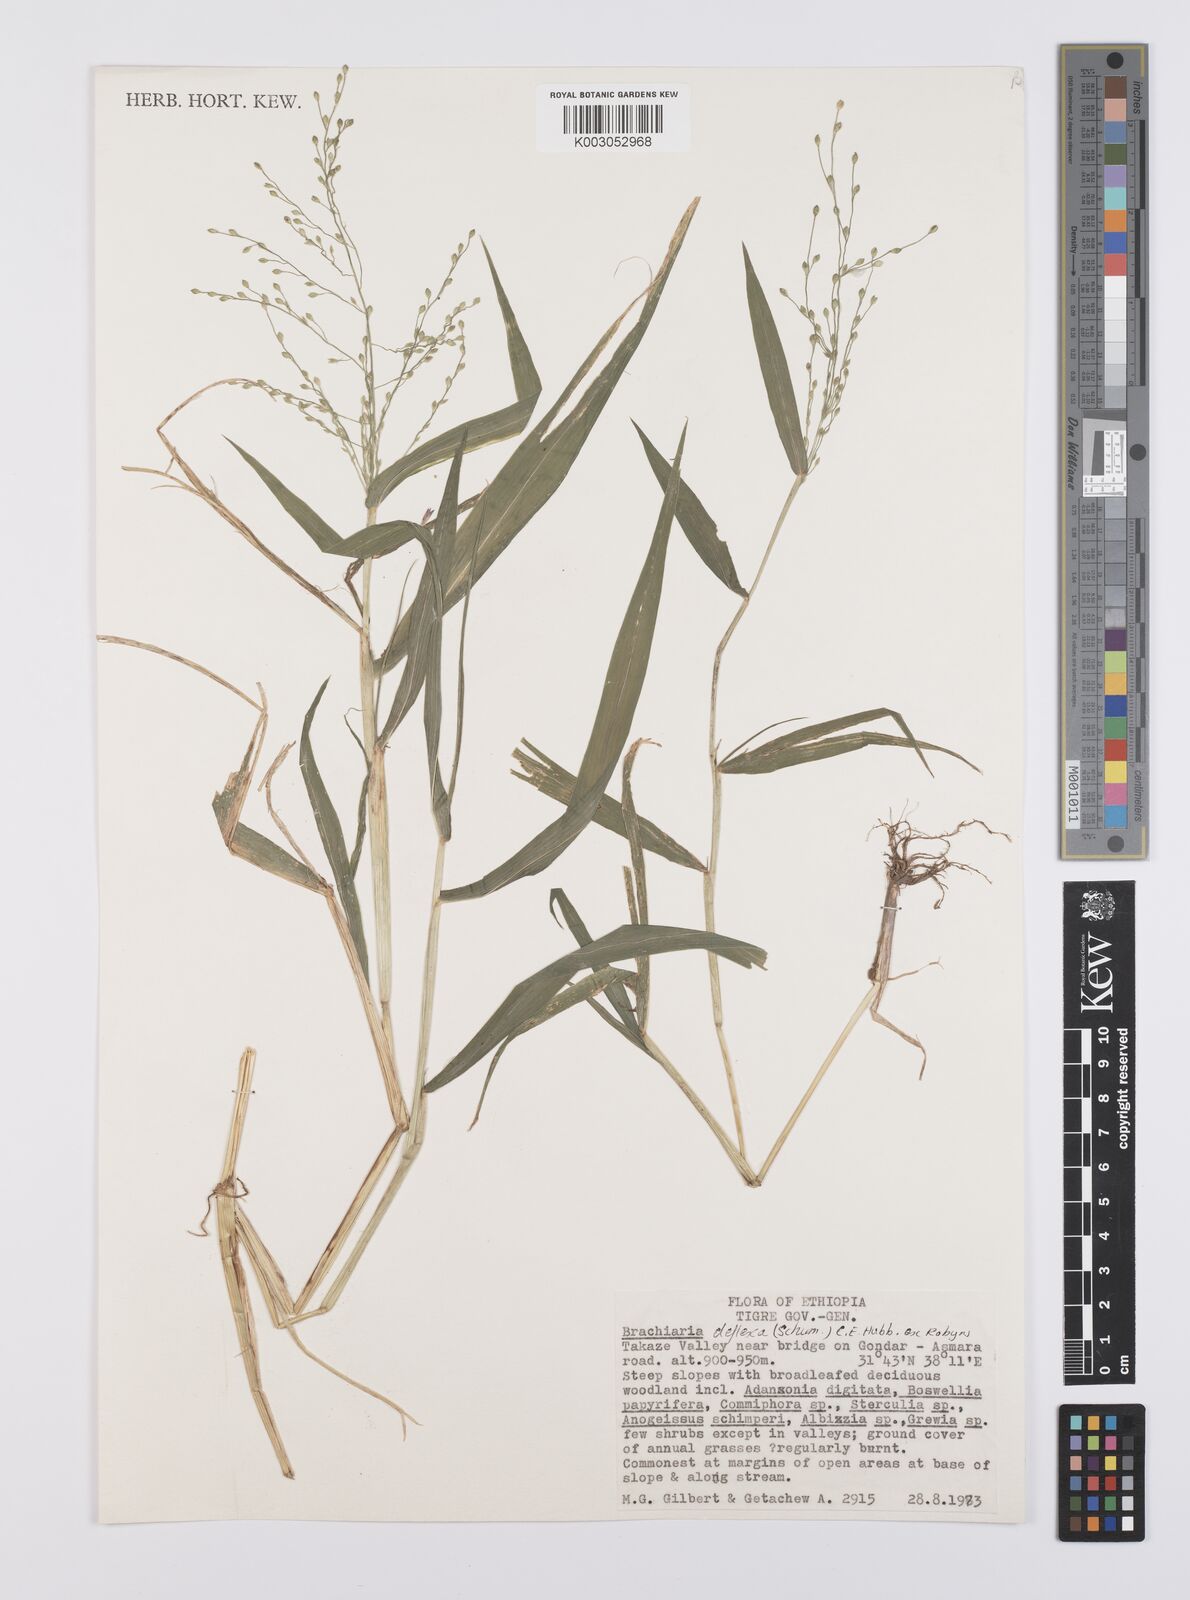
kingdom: Plantae
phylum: Tracheophyta
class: Liliopsida
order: Poales
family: Poaceae
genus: Urochloa
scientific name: Urochloa deflexa
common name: Guinea millet
